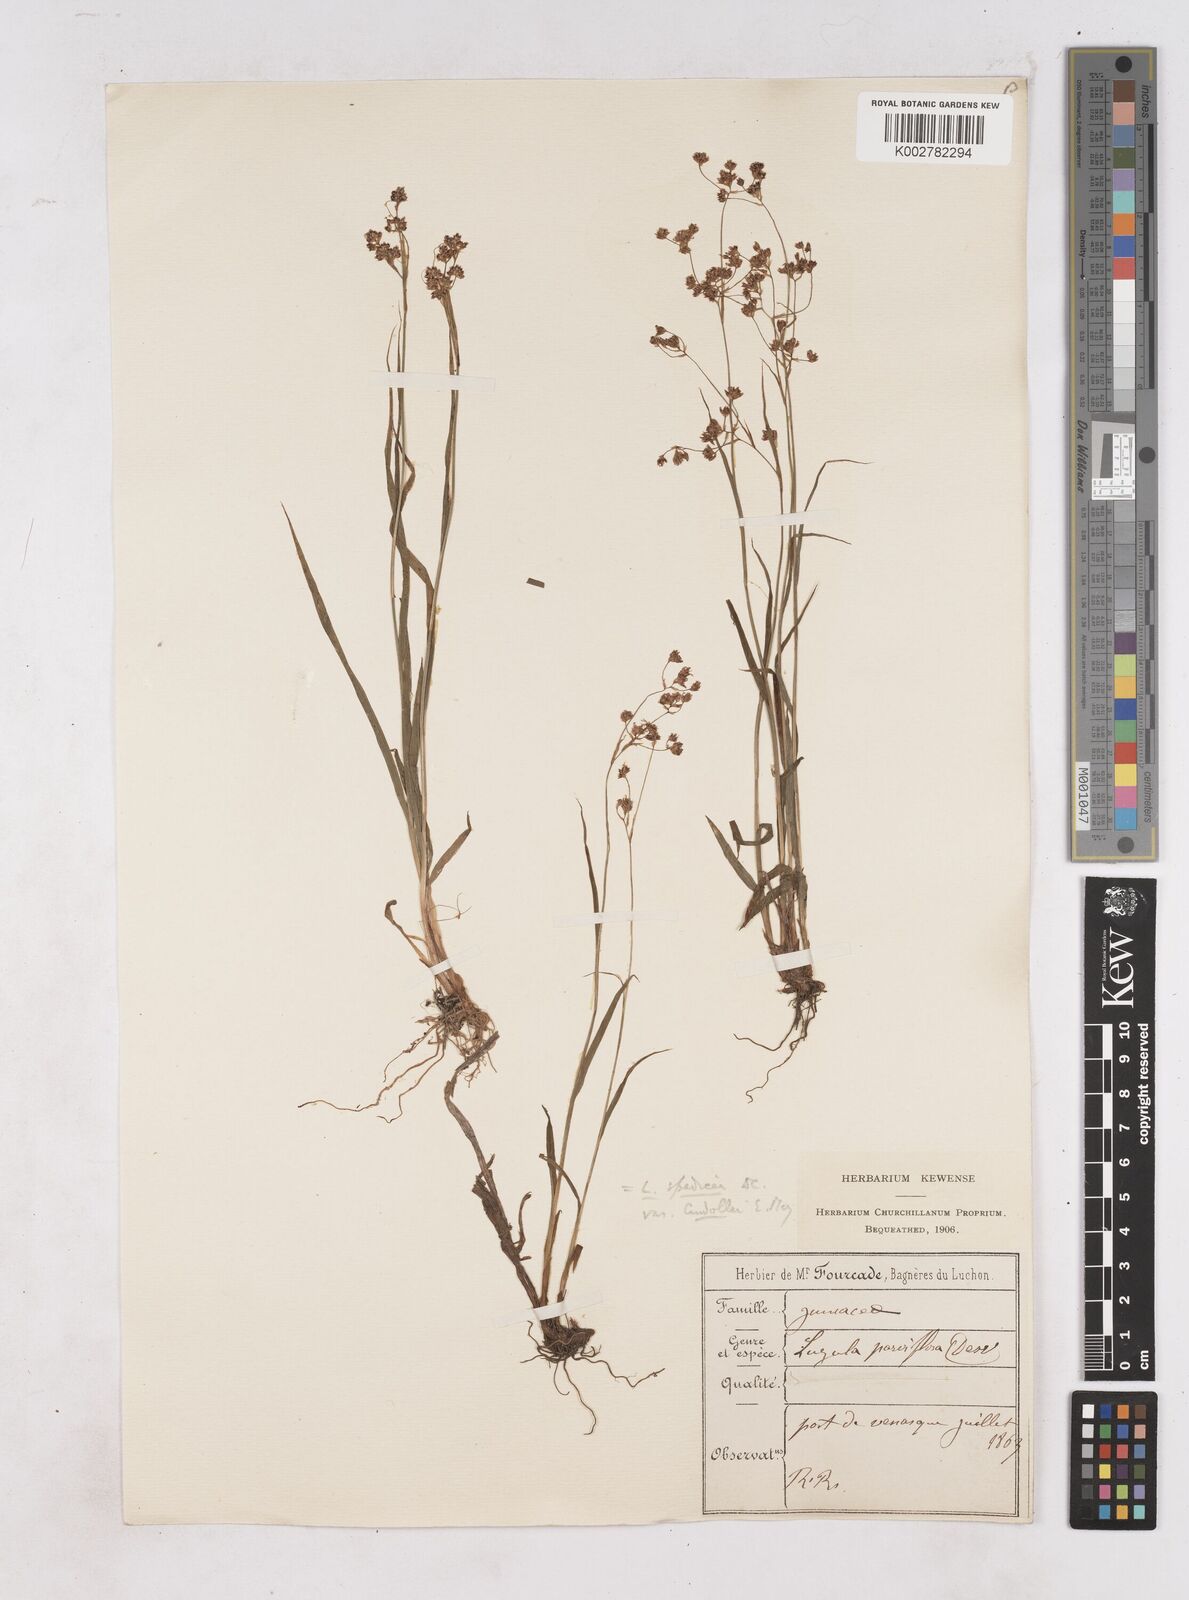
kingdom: Plantae
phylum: Tracheophyta
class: Liliopsida
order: Poales
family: Juncaceae
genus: Luzula
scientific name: Luzula alpinopilosa
